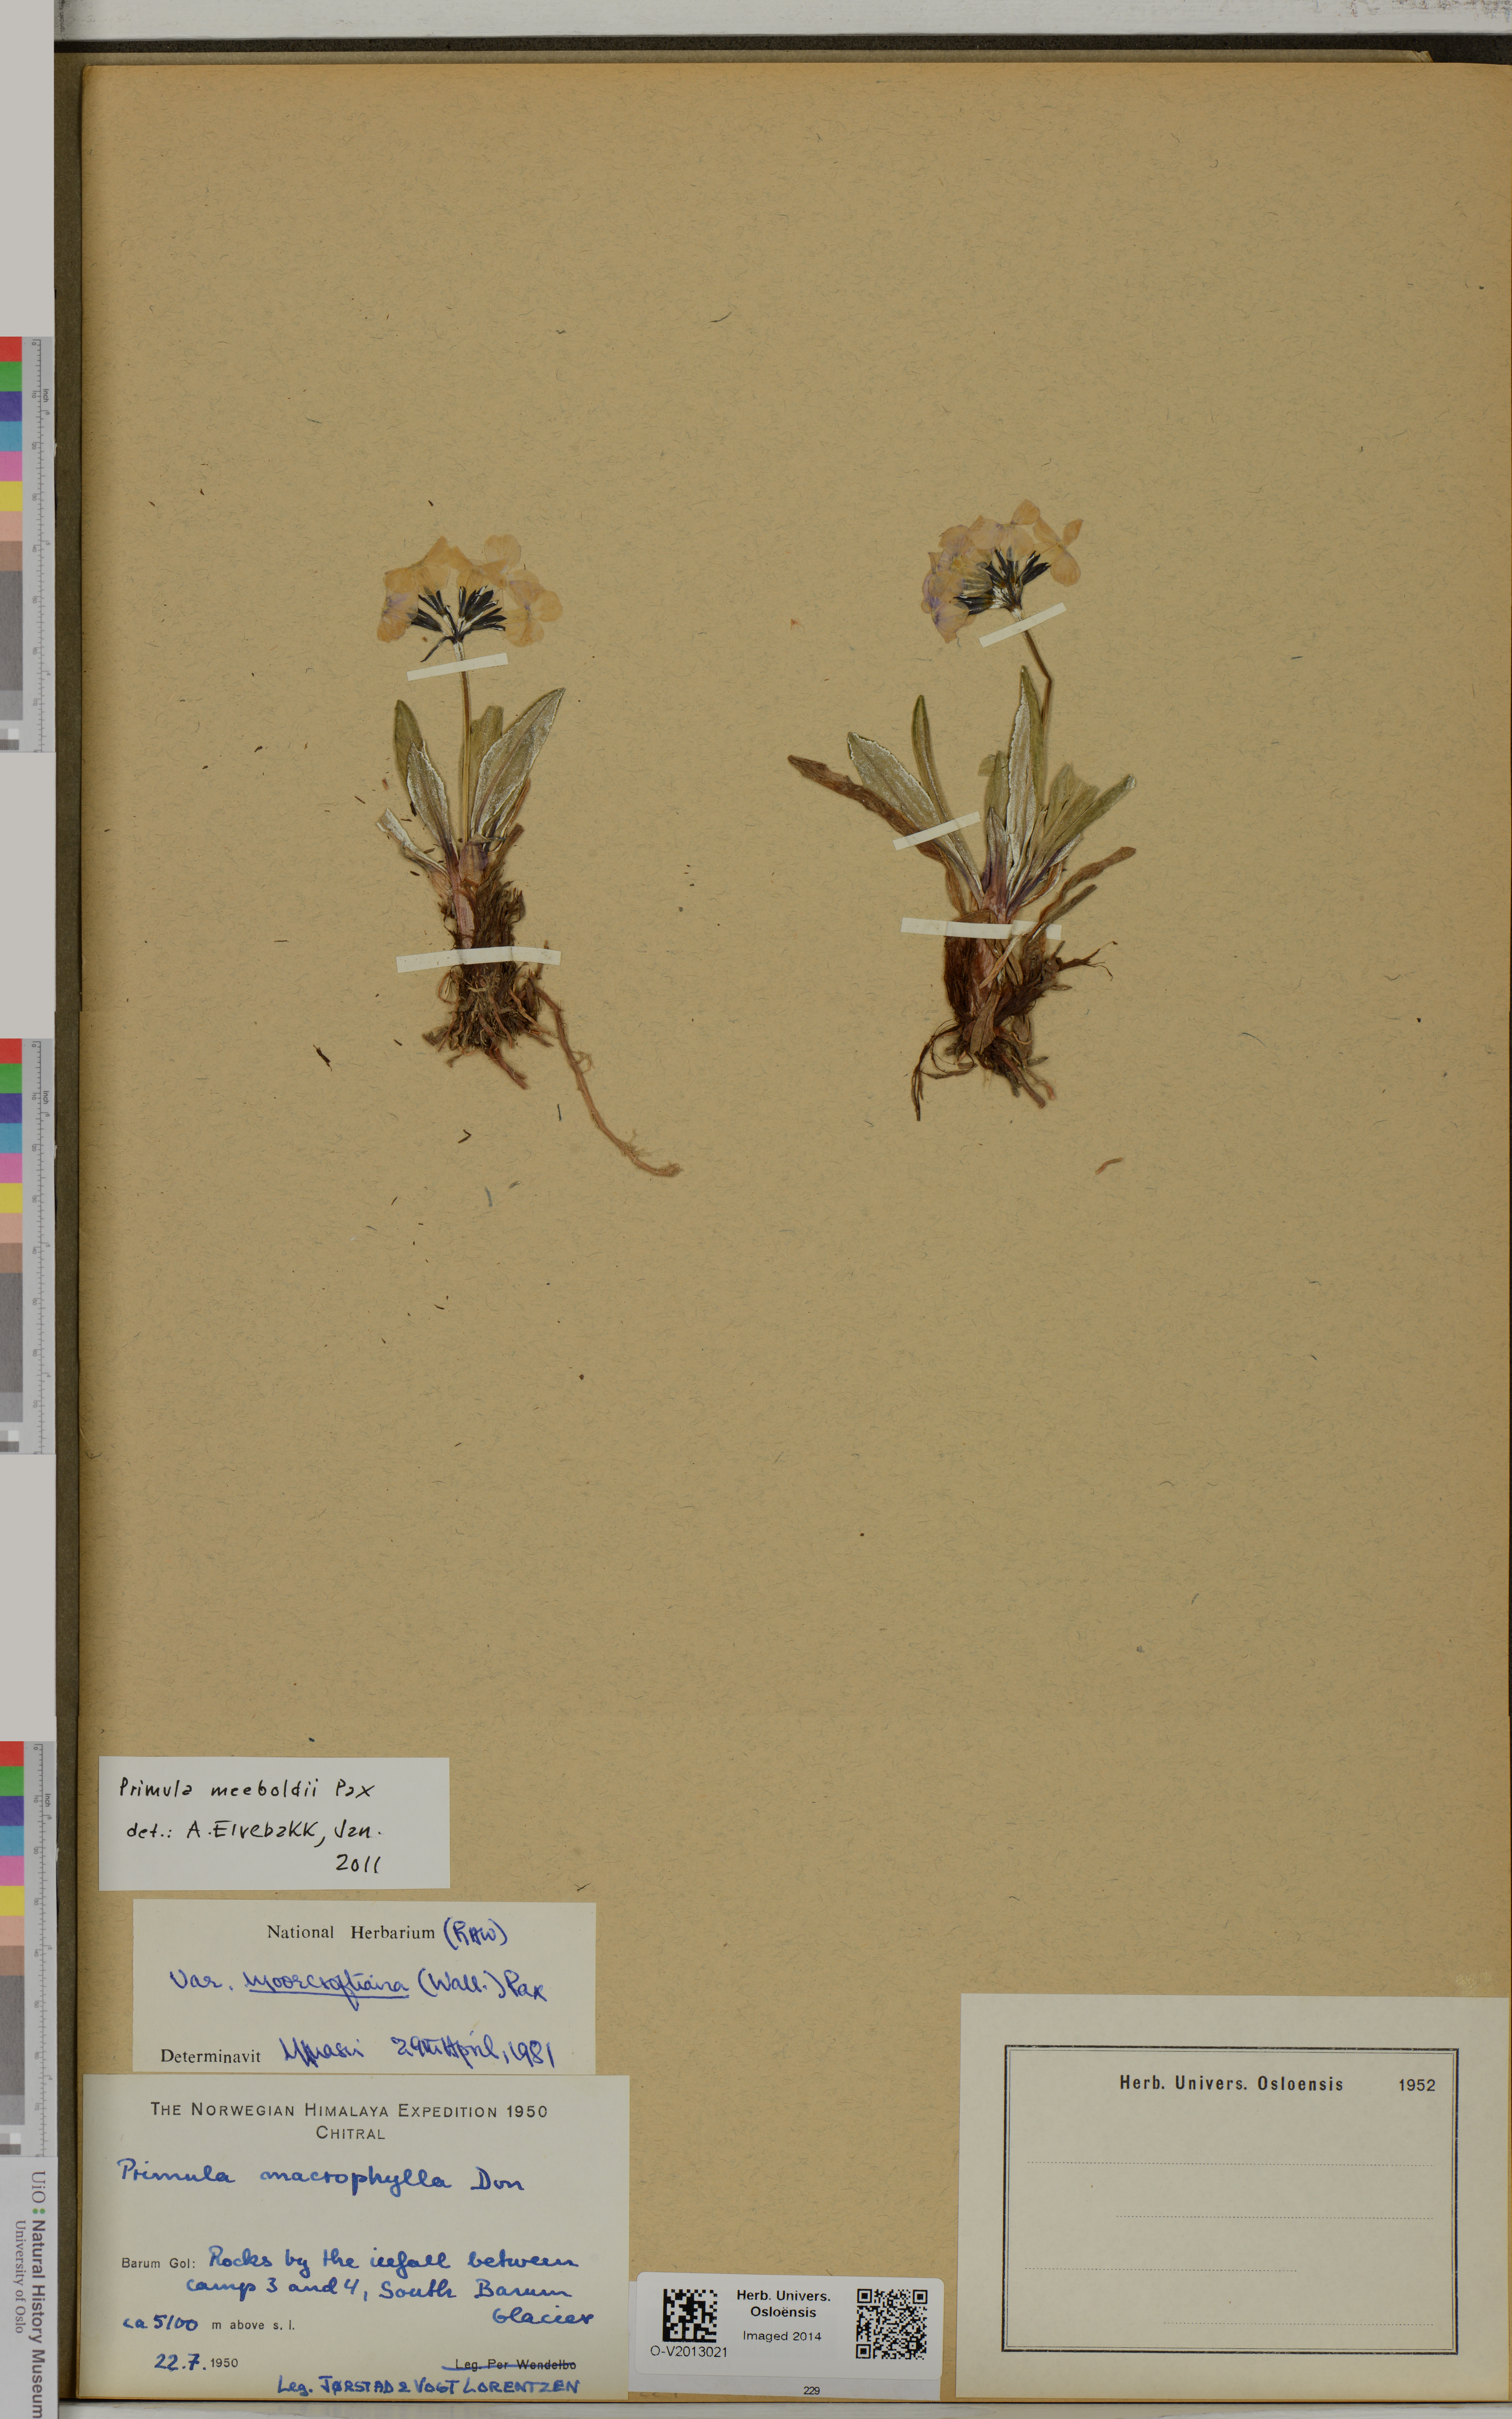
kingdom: Plantae
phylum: Tracheophyta
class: Magnoliopsida
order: Ericales
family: Primulaceae
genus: Primula
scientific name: Primula macrophylla
